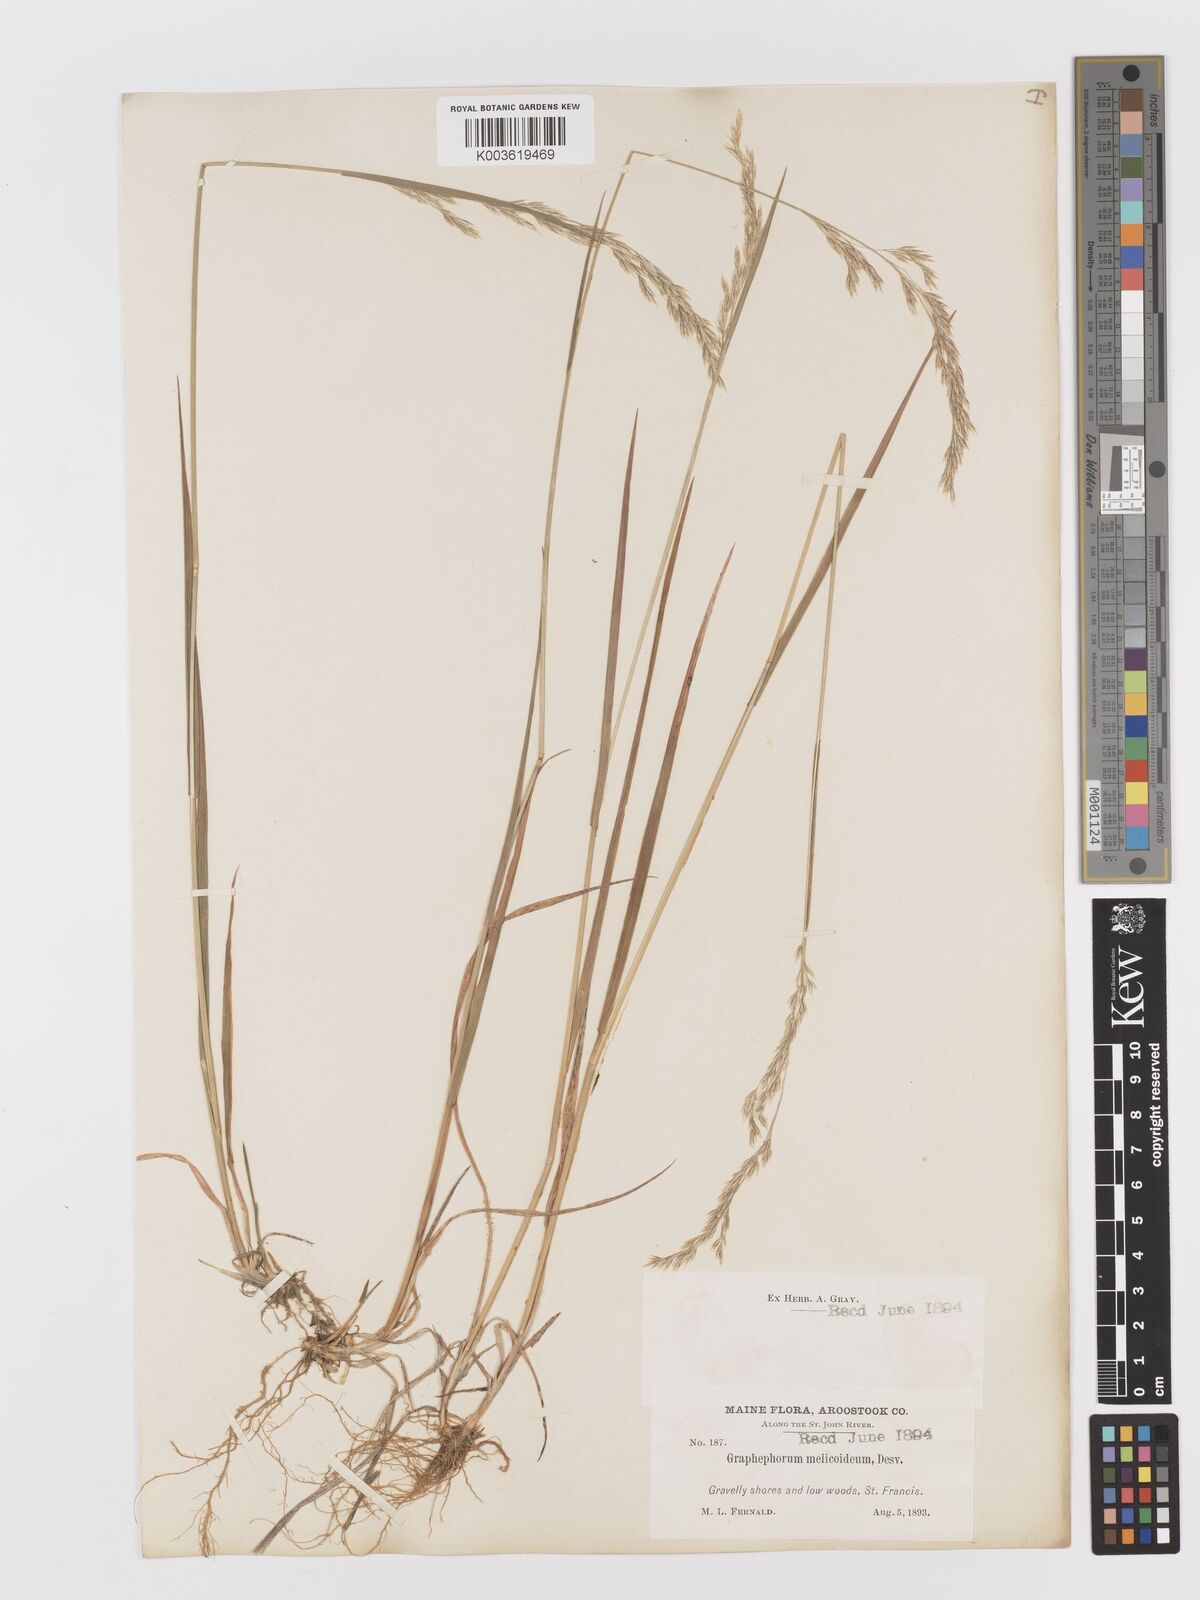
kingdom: Plantae
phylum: Tracheophyta
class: Liliopsida
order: Poales
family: Poaceae
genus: Graphephorum
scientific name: Graphephorum melicoides
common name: False melic
